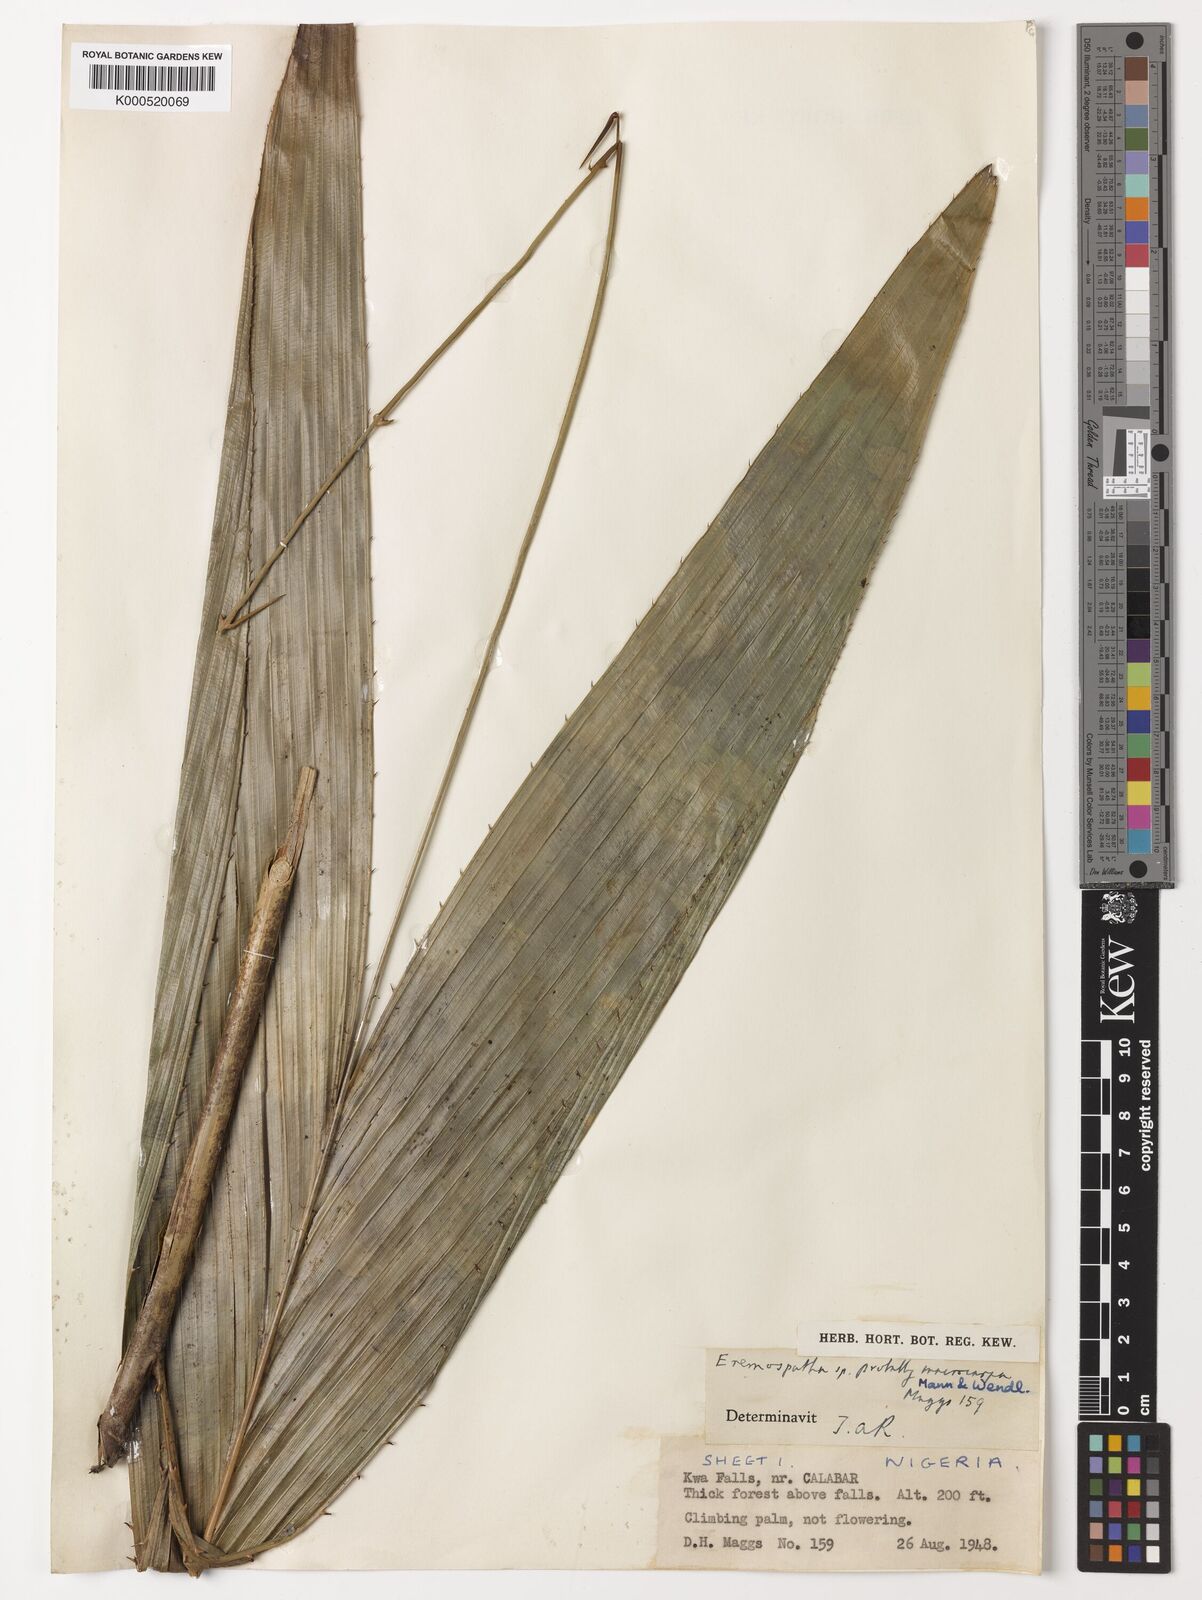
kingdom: Plantae
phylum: Tracheophyta
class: Liliopsida
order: Arecales
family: Arecaceae
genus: Eremospatha
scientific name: Eremospatha
